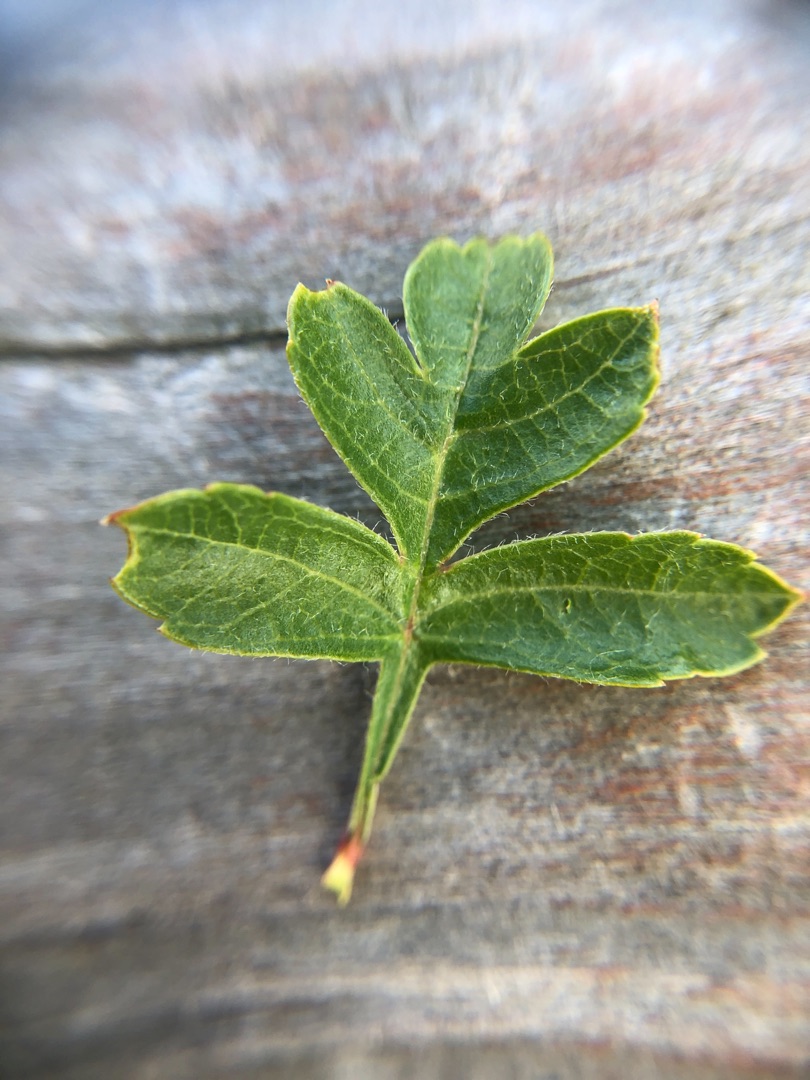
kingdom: Plantae
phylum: Tracheophyta
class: Magnoliopsida
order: Rosales
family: Rosaceae
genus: Crataegus
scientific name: Crataegus monogyna
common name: Engriflet hvidtjørn
